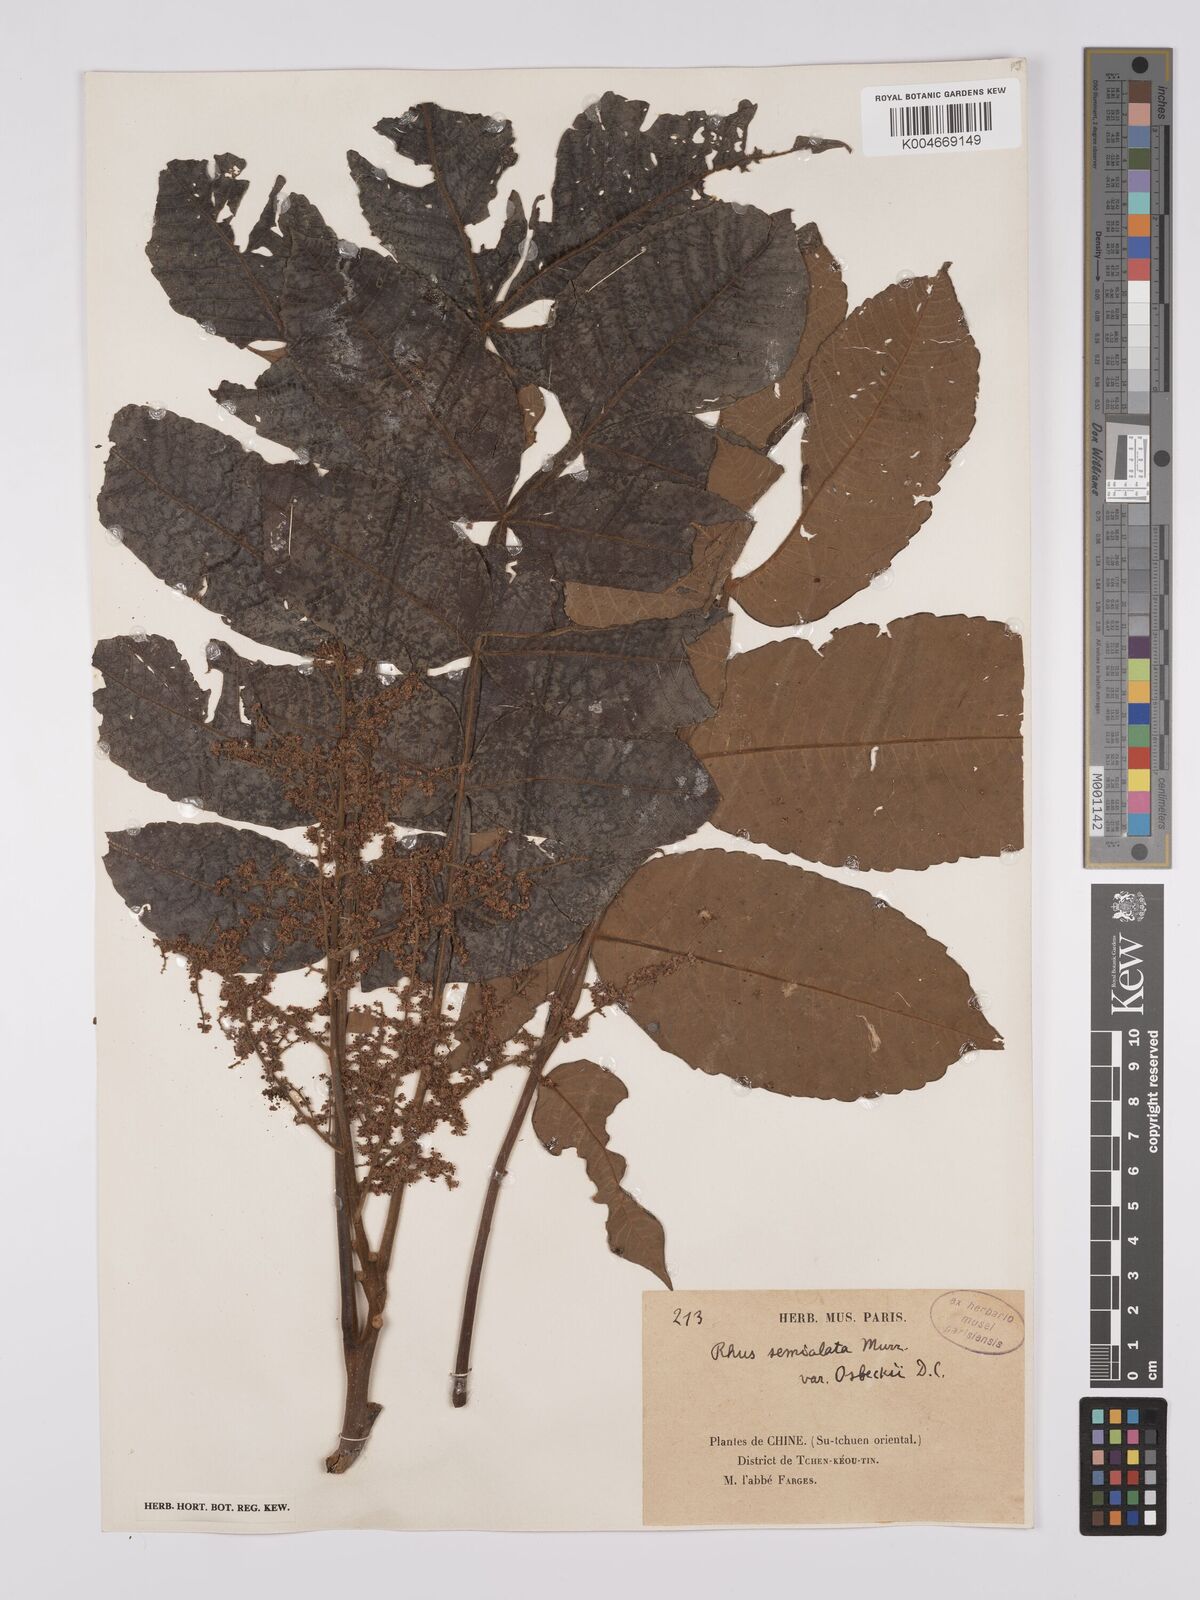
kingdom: Plantae
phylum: Tracheophyta
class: Magnoliopsida
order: Sapindales
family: Anacardiaceae
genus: Rhus
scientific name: Rhus chinensis
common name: Chinese gall
